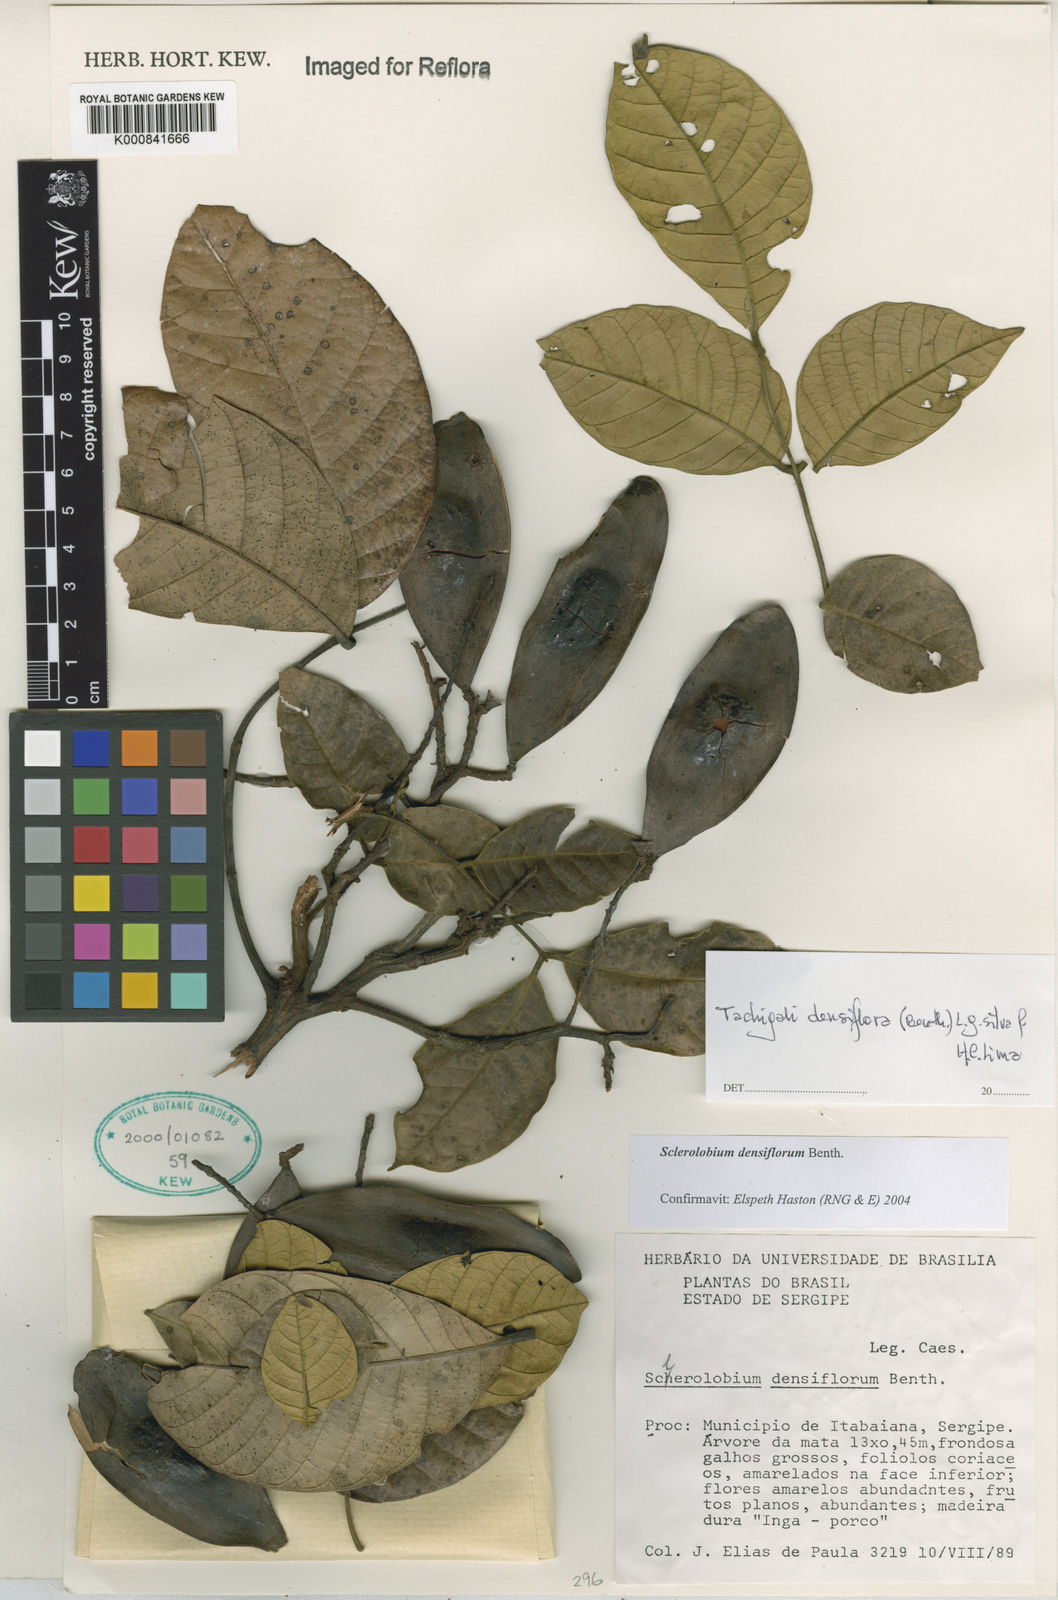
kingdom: Plantae
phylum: Tracheophyta
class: Magnoliopsida
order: Fabales
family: Fabaceae
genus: Tachigali
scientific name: Tachigali densiflora
